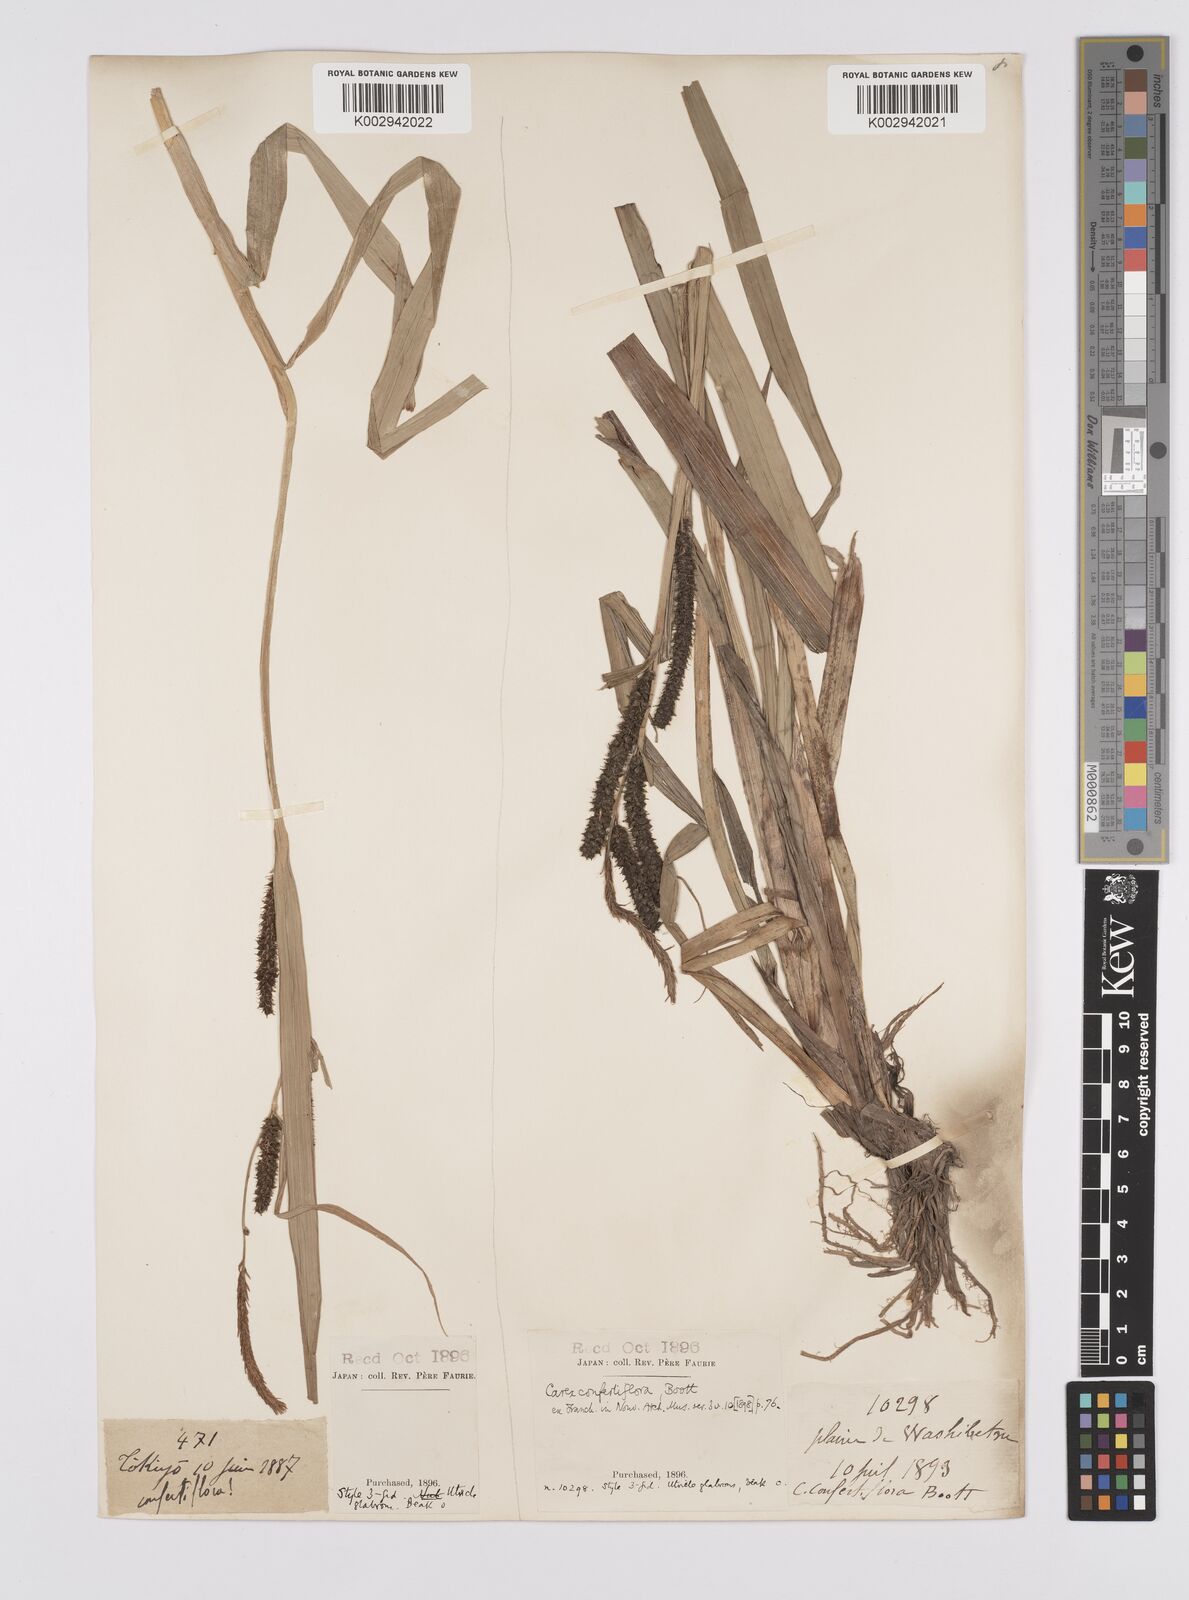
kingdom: Plantae
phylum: Tracheophyta
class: Liliopsida
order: Poales
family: Cyperaceae
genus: Carex
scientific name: Carex olivacea
